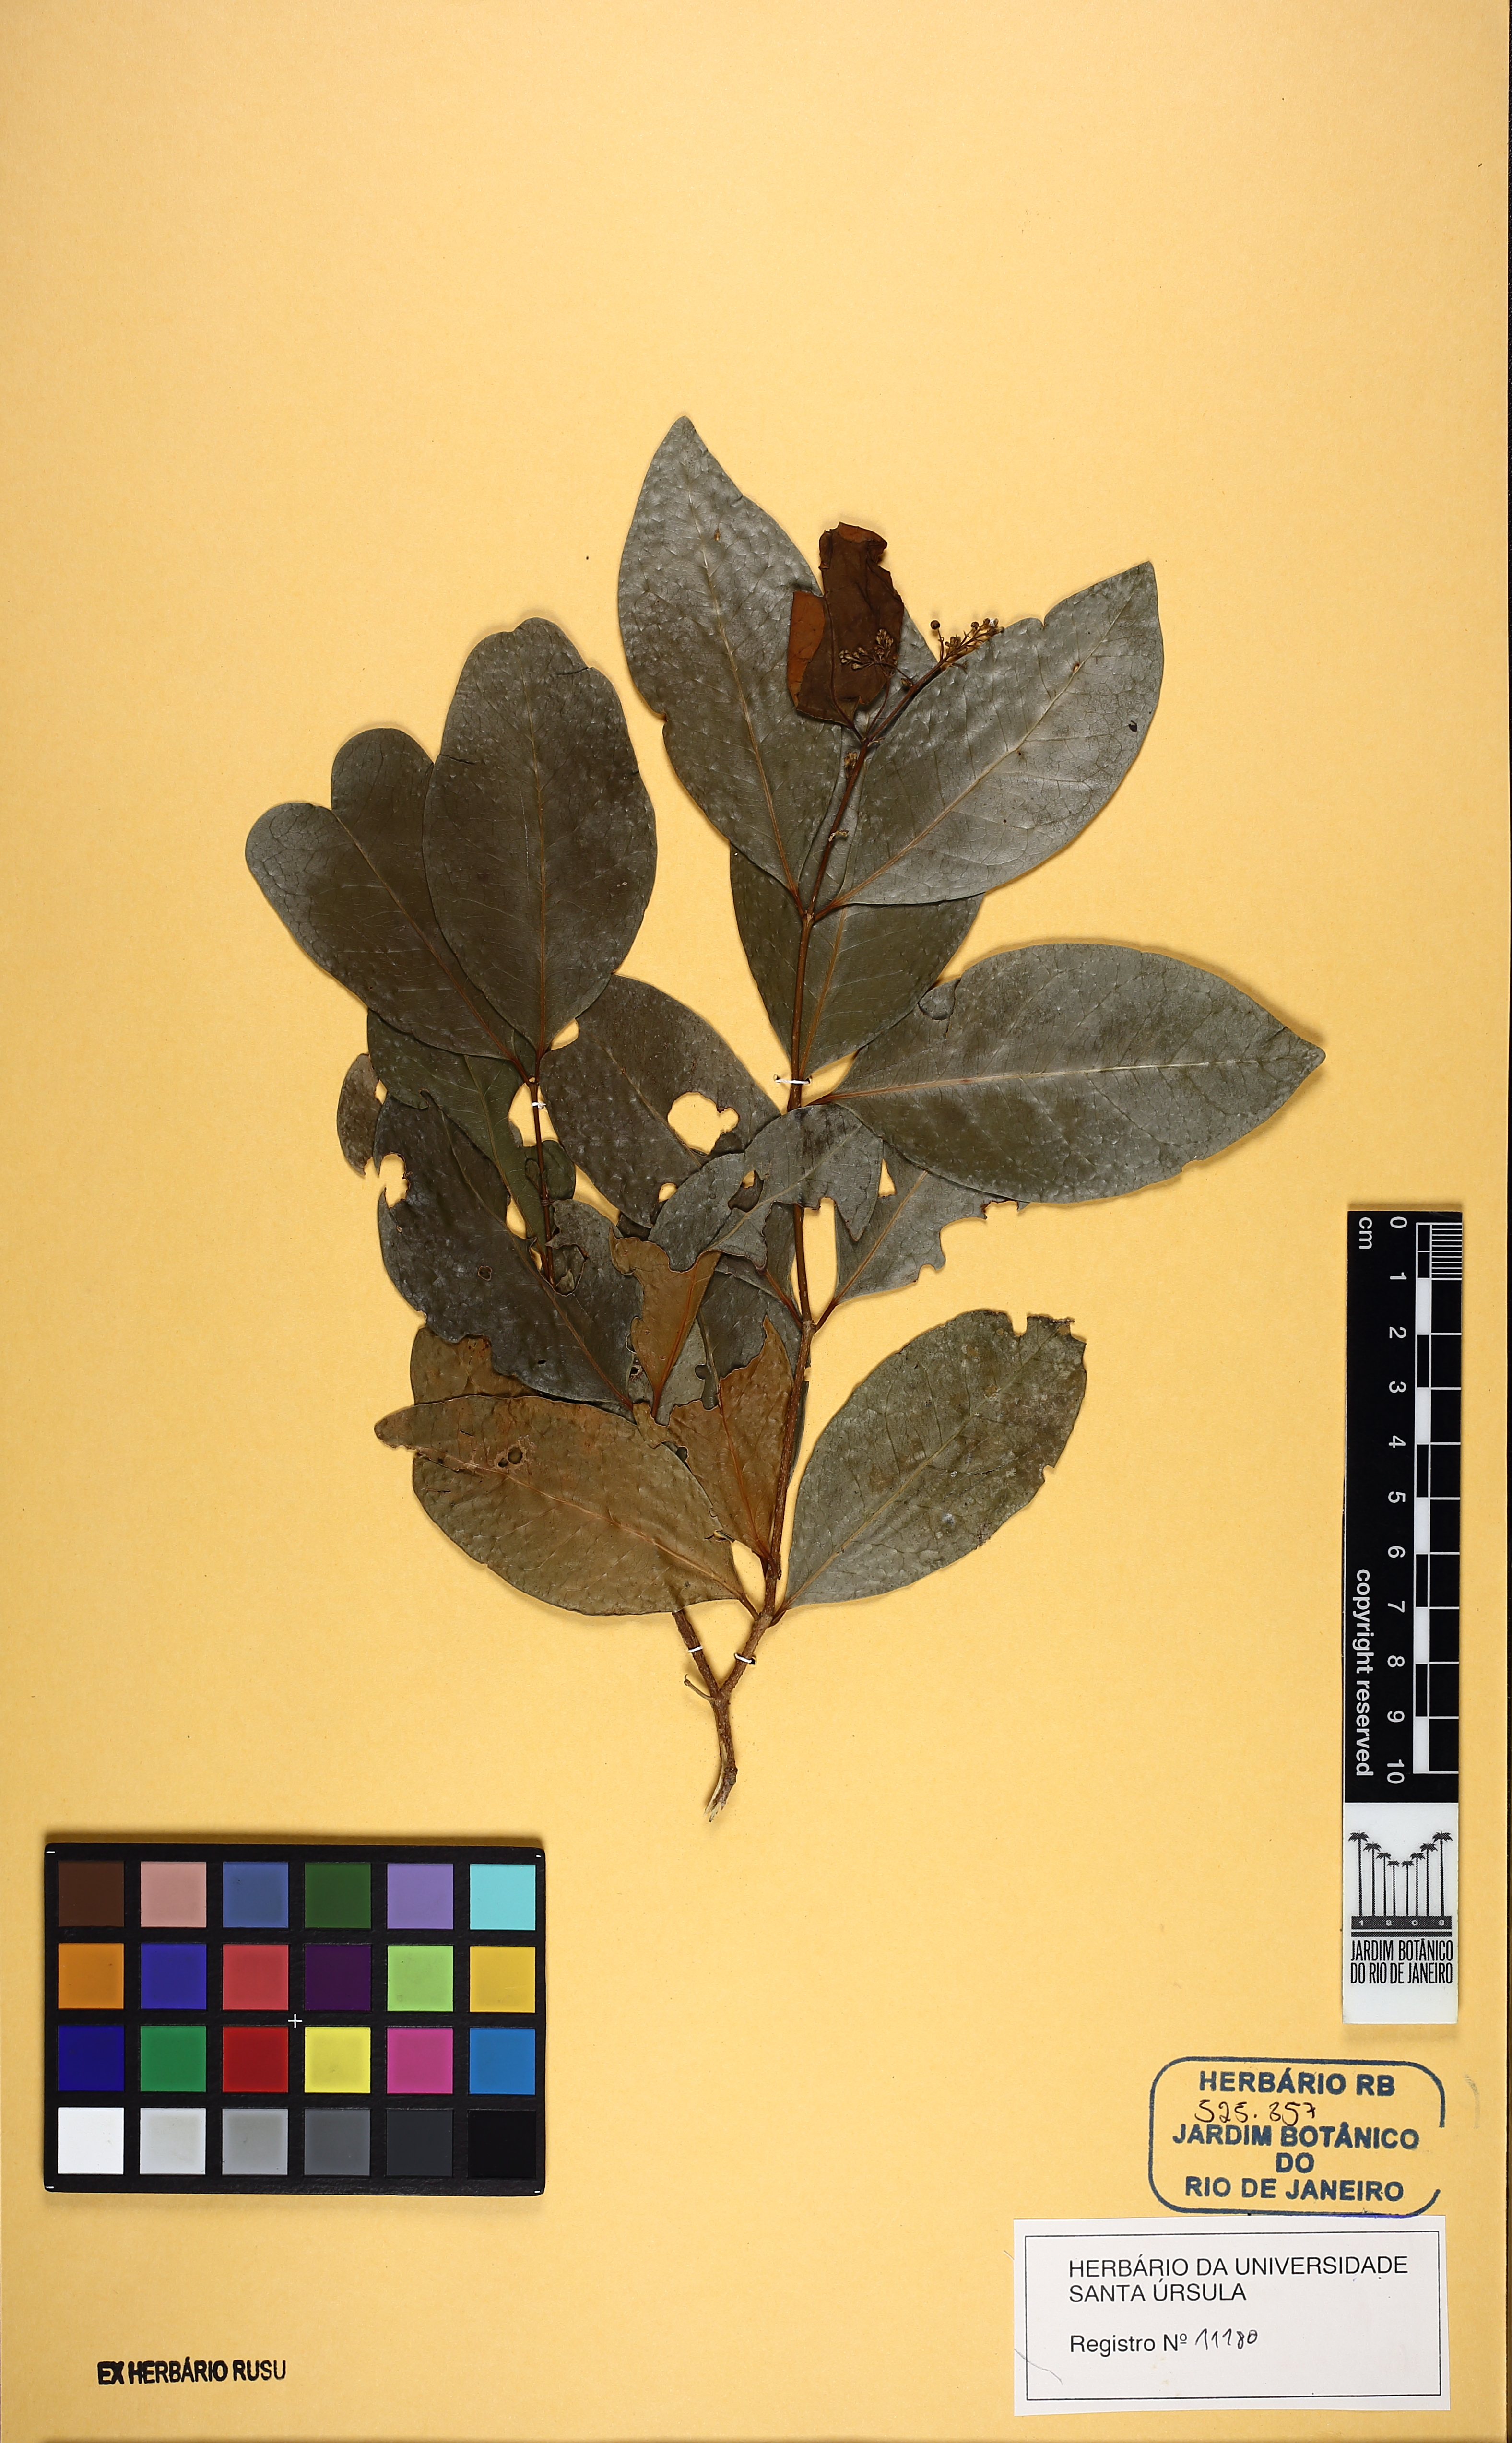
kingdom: Plantae
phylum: Tracheophyta
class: Magnoliopsida
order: Malpighiales
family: Malpighiaceae
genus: Niedenzuella
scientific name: Niedenzuella
